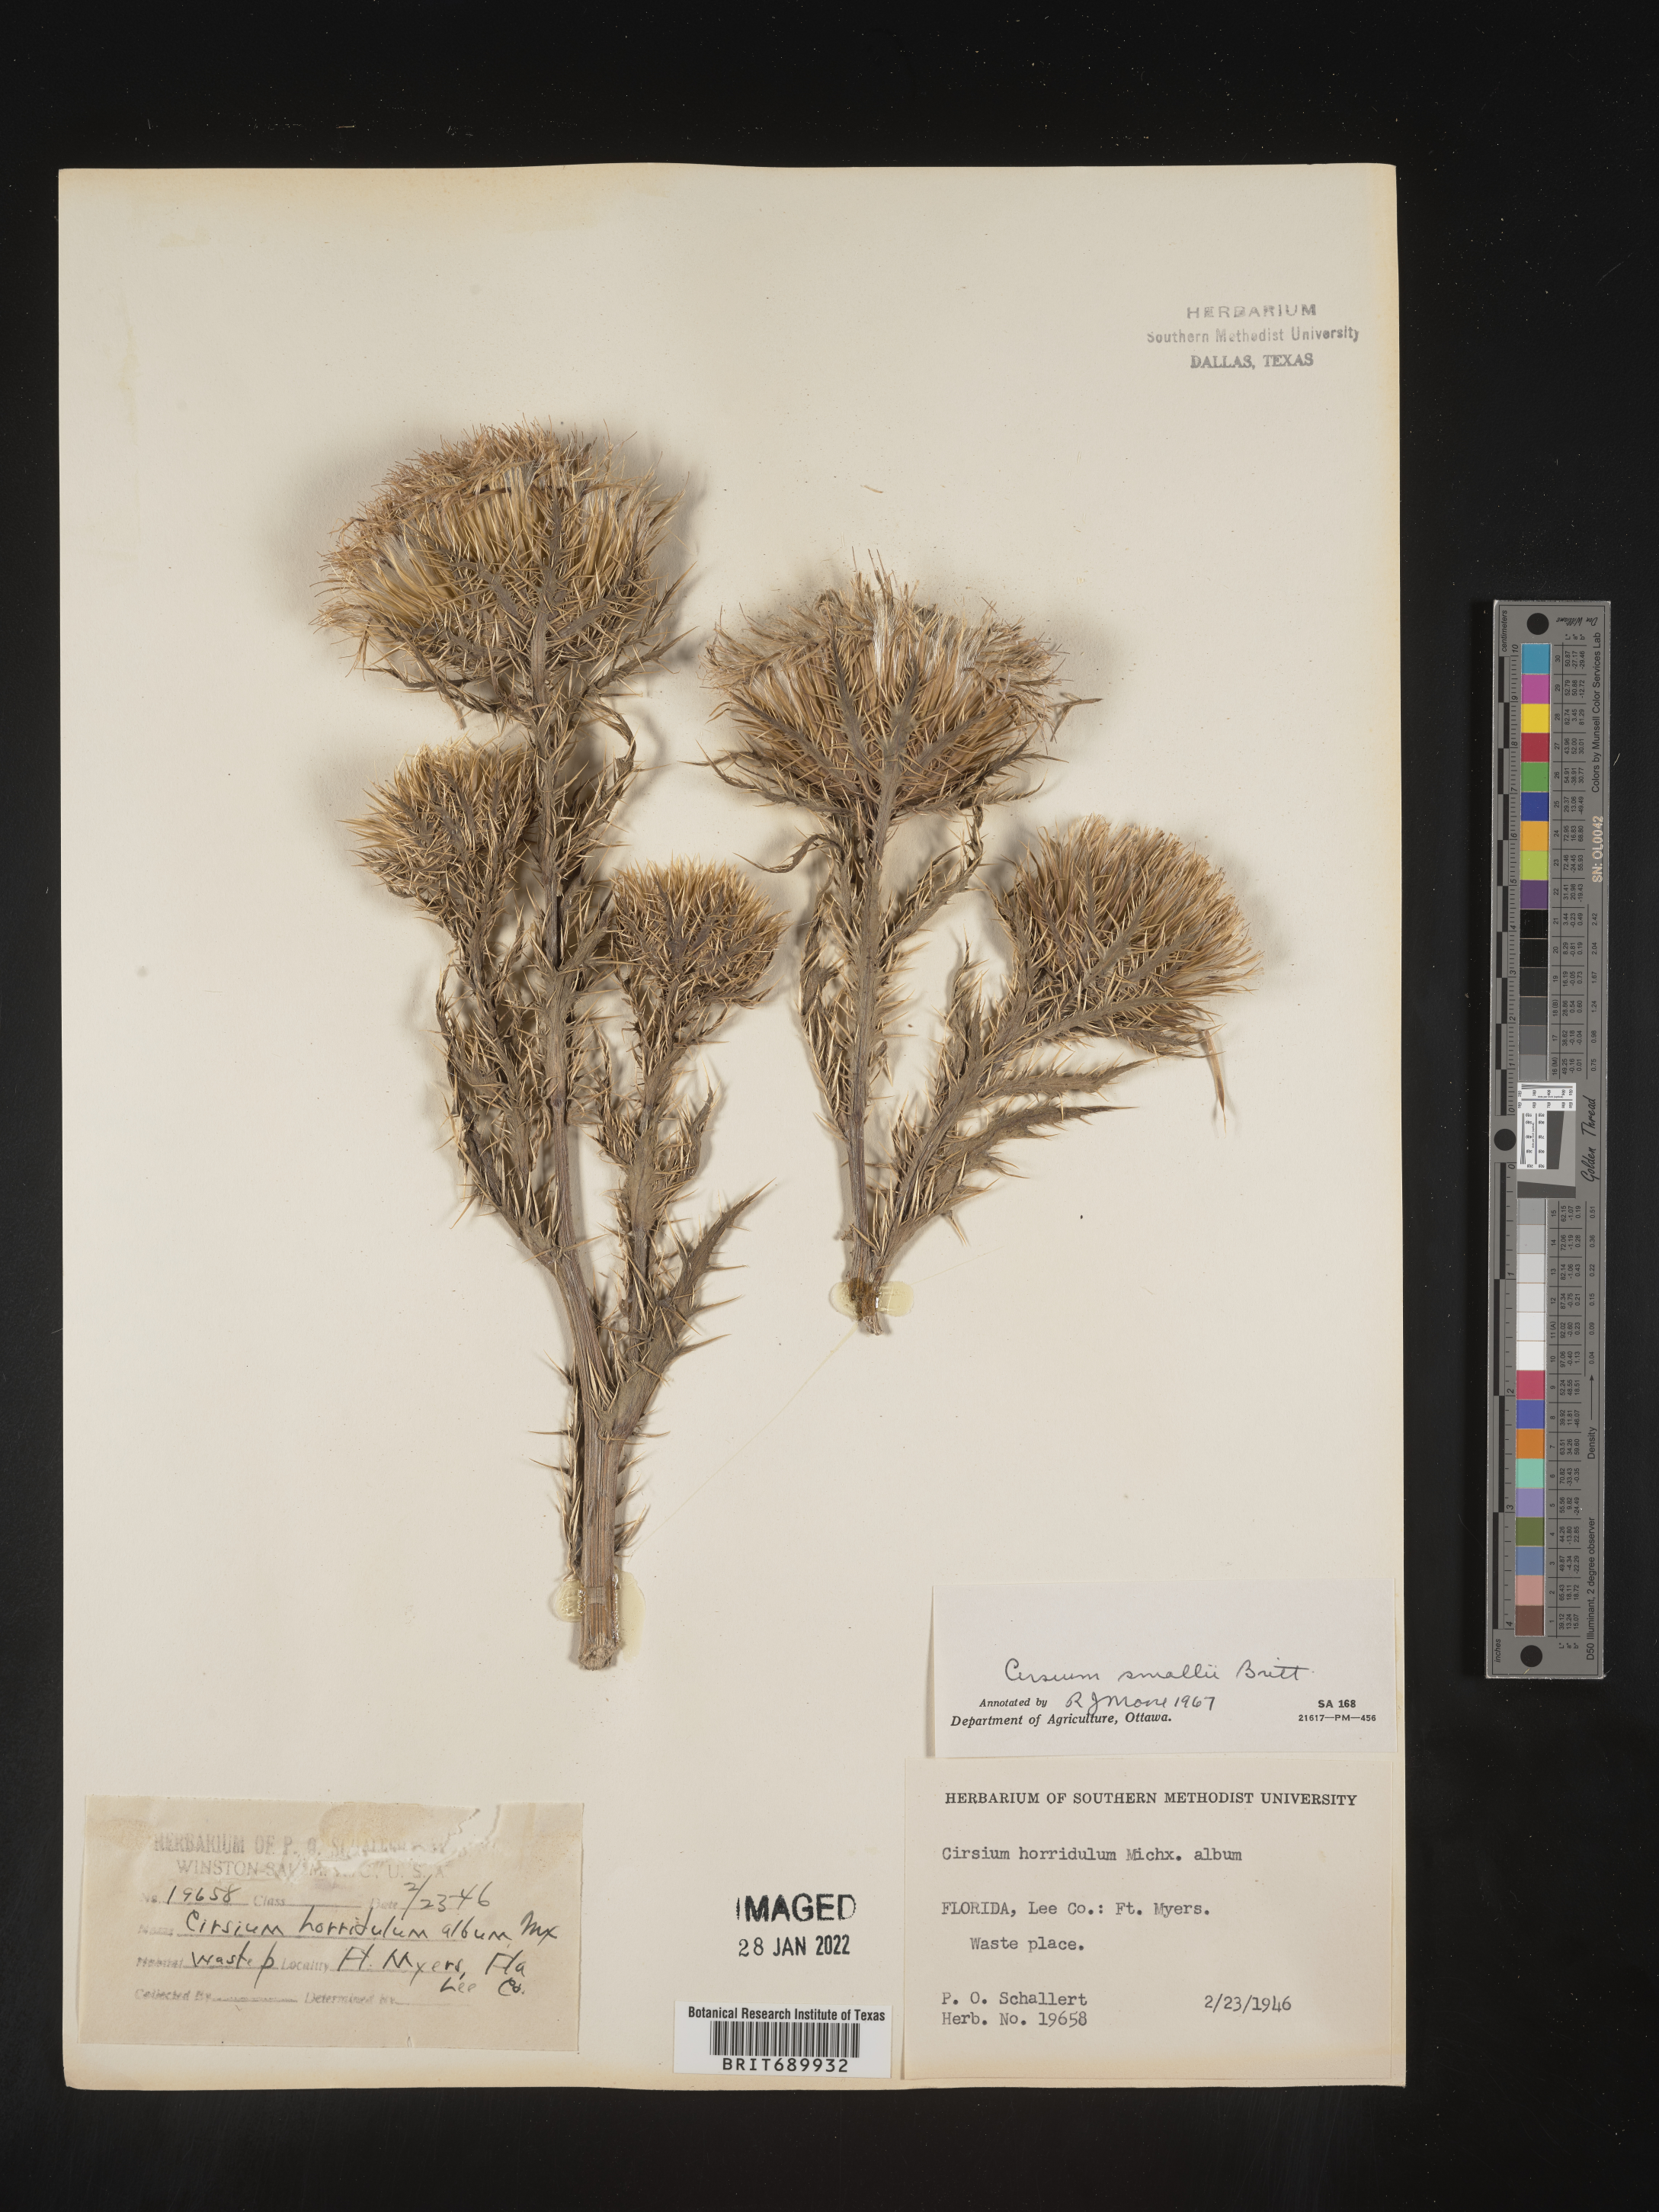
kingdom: Plantae
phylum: Tracheophyta
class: Magnoliopsida
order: Asterales
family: Asteraceae
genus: Cirsium
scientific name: Cirsium horridulum
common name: Bristly thistle
